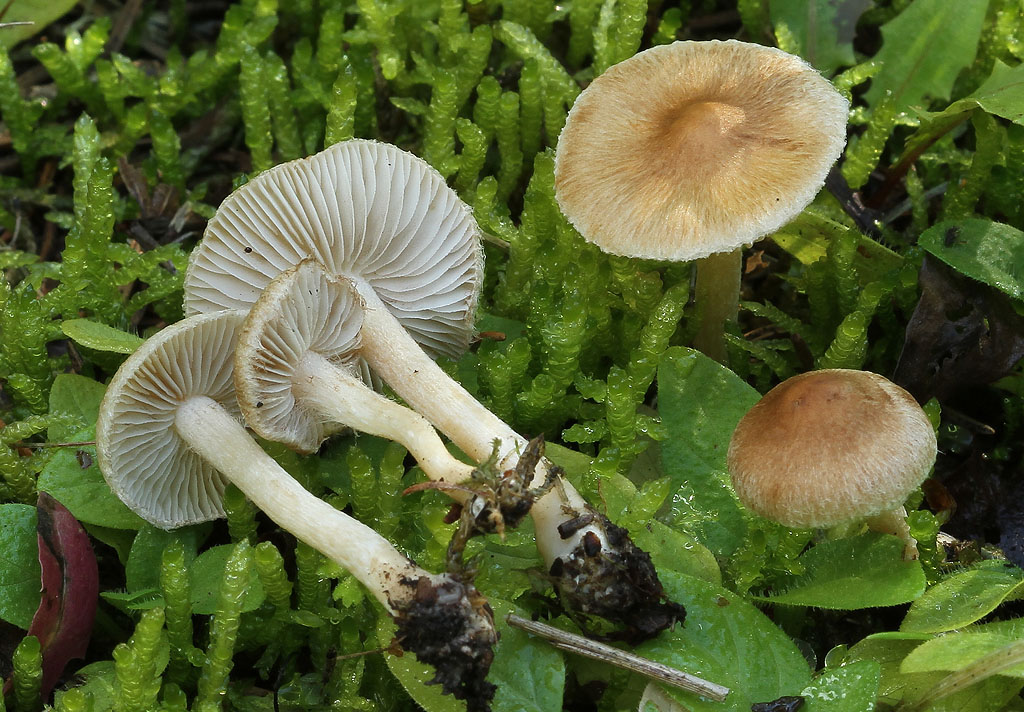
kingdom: Fungi
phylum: Basidiomycota
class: Agaricomycetes
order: Agaricales
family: Inocybaceae
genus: Inocybe
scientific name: Inocybe
